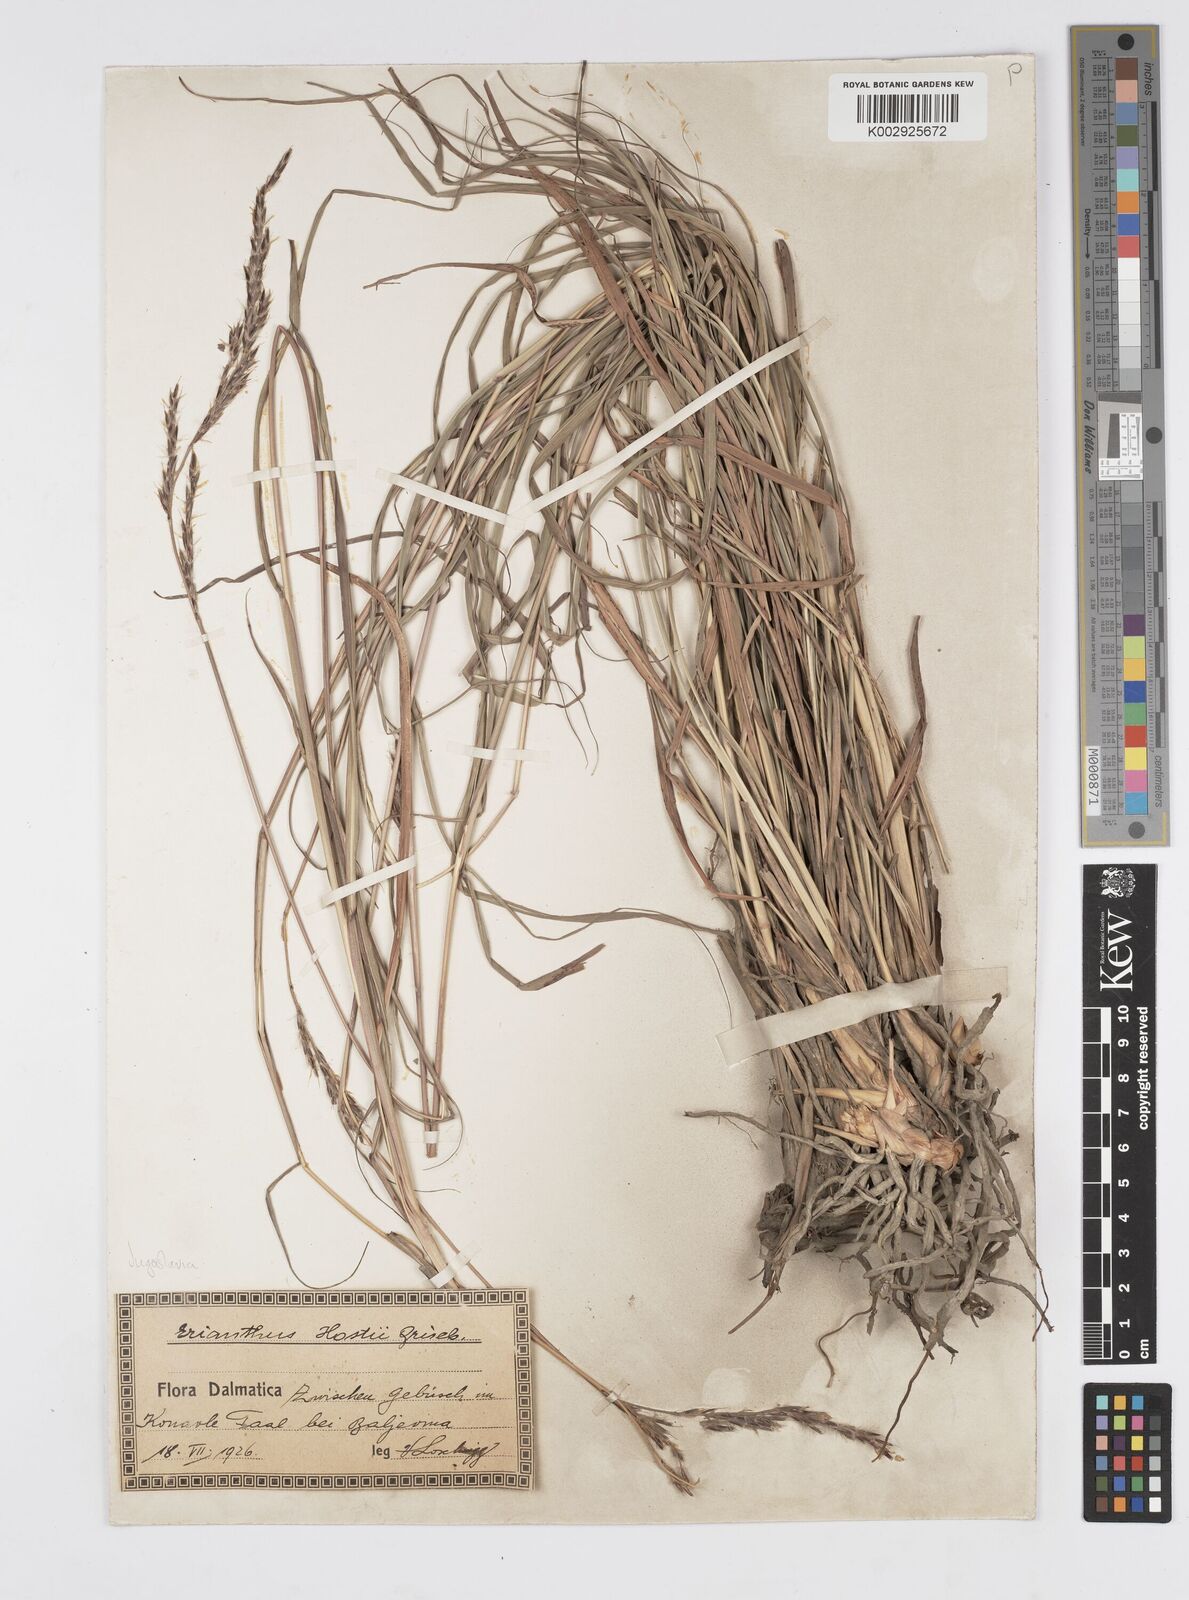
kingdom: Plantae
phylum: Tracheophyta
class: Liliopsida
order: Poales
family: Poaceae
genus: Tripidium
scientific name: Tripidium strictum
